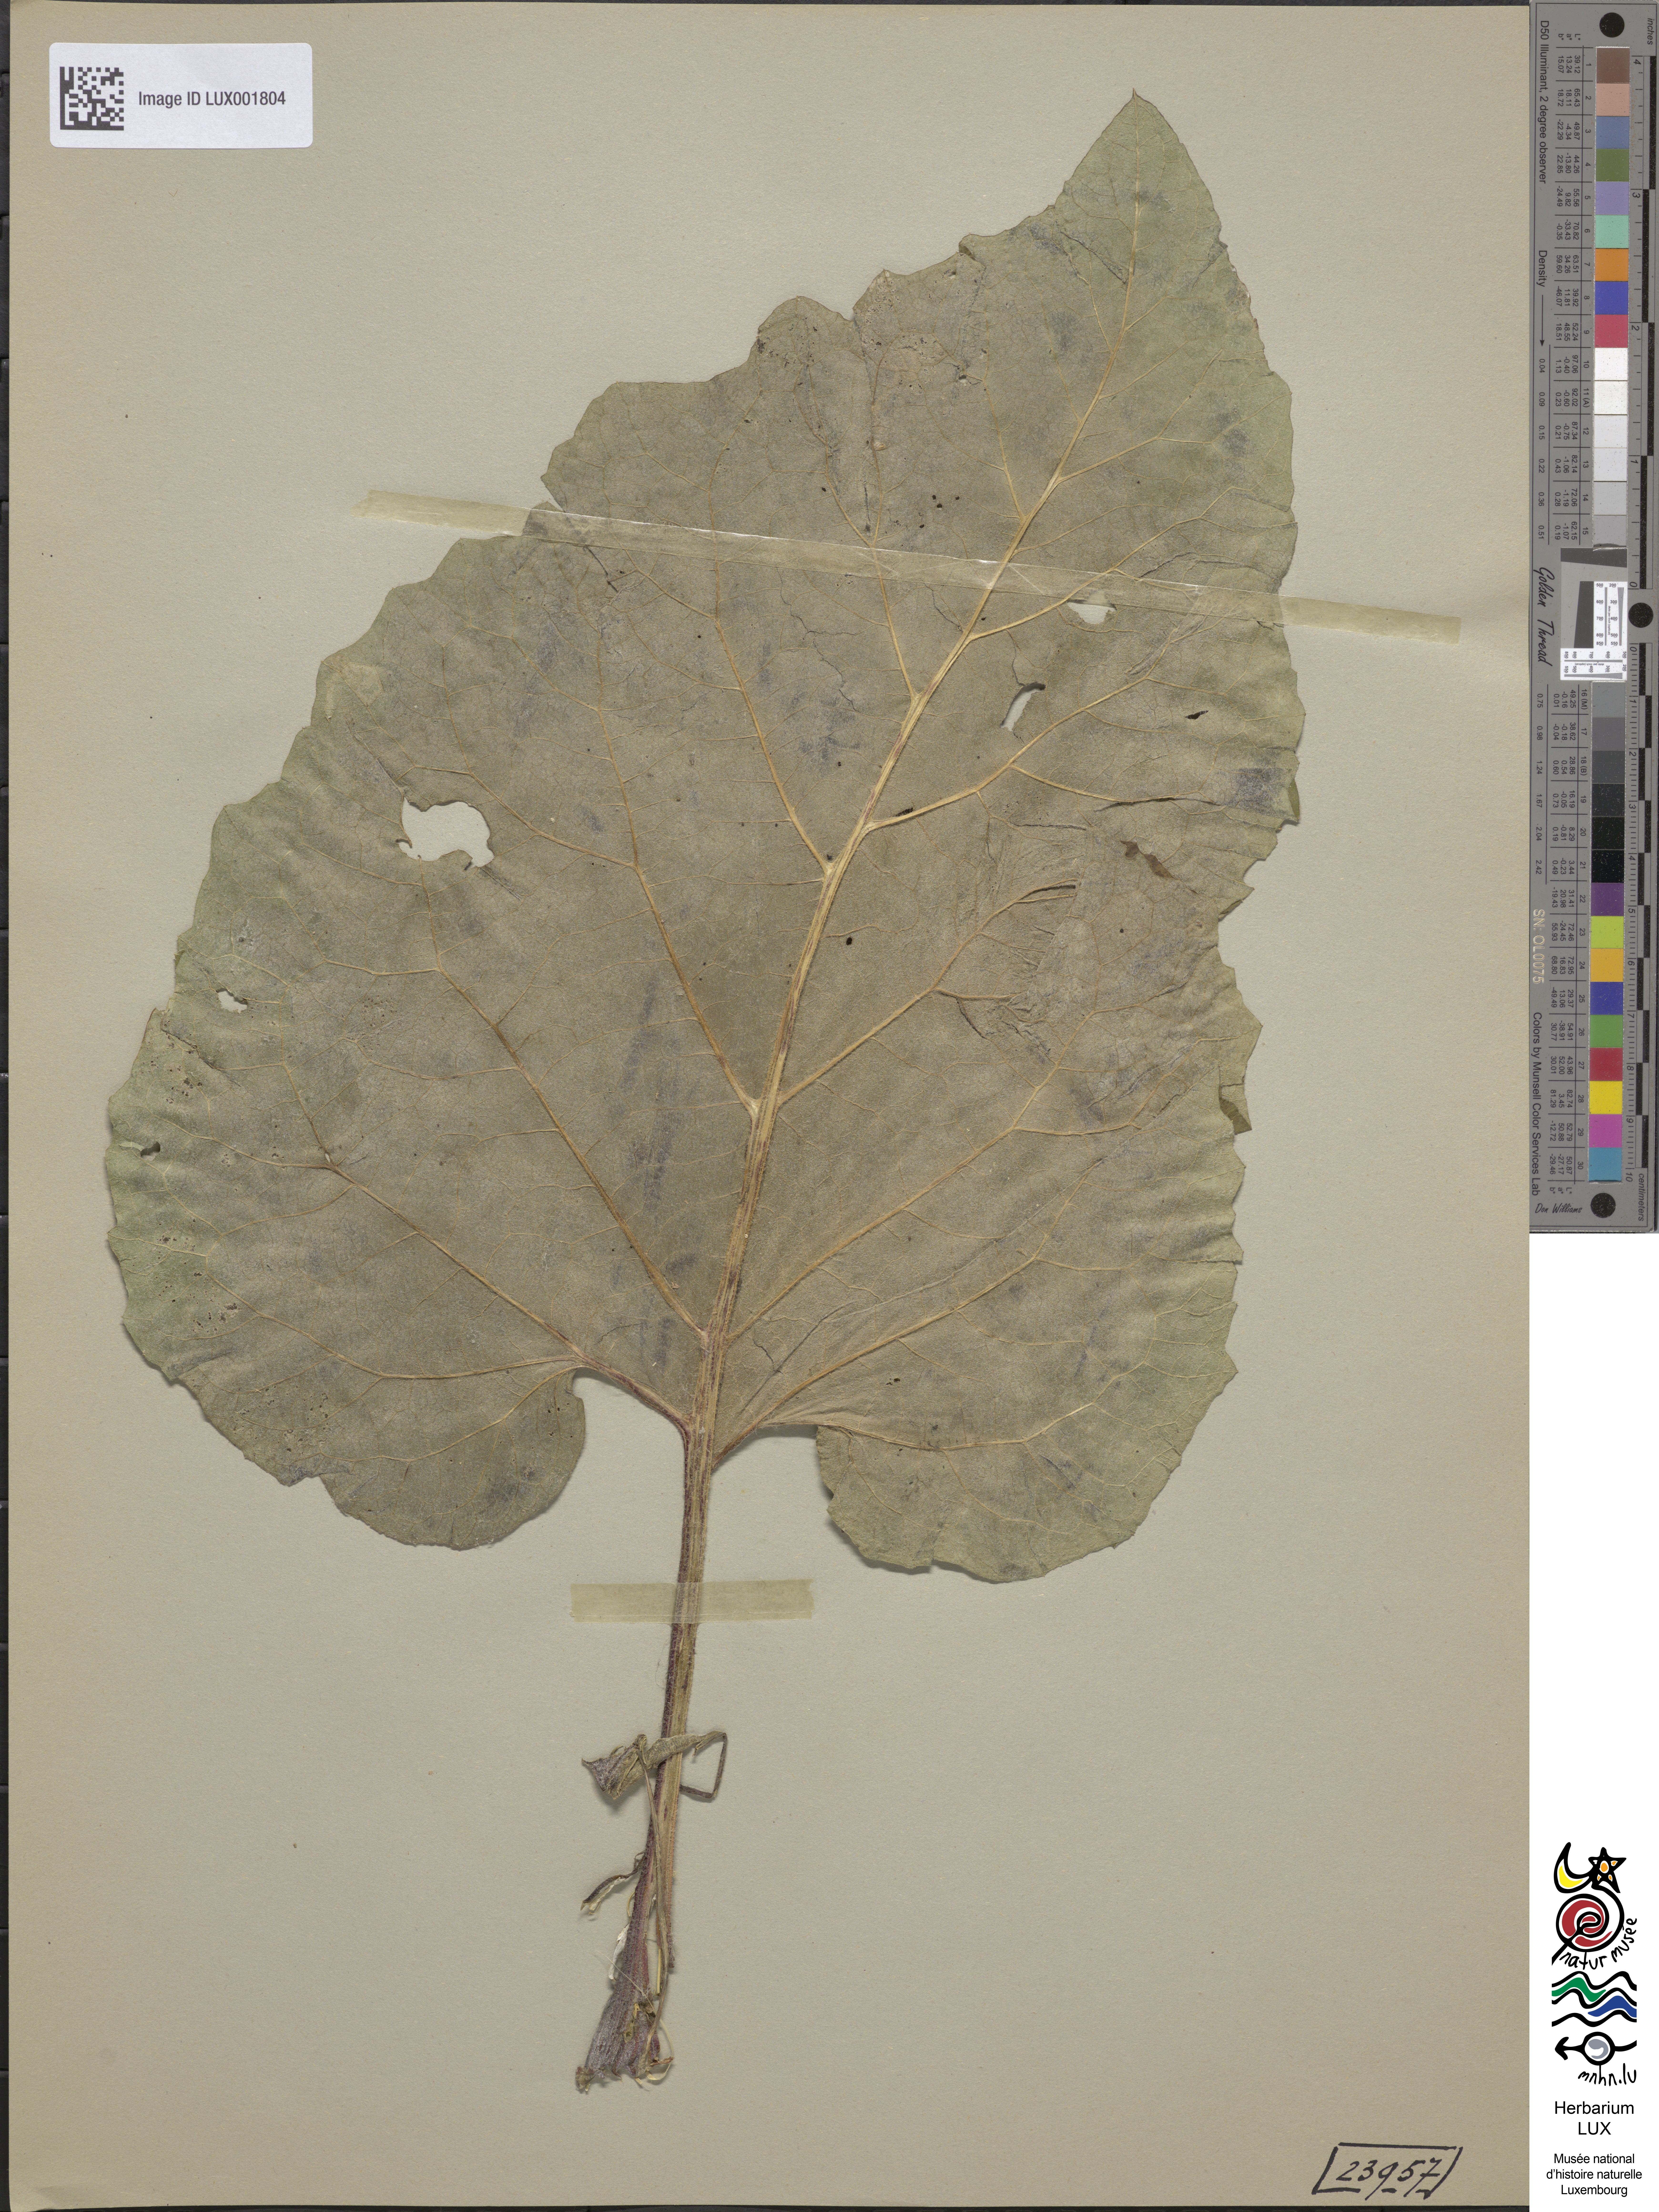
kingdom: Plantae
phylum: Tracheophyta
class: Magnoliopsida
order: Asterales
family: Asteraceae
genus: Arctium
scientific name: Arctium lappa
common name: Greater burdock
